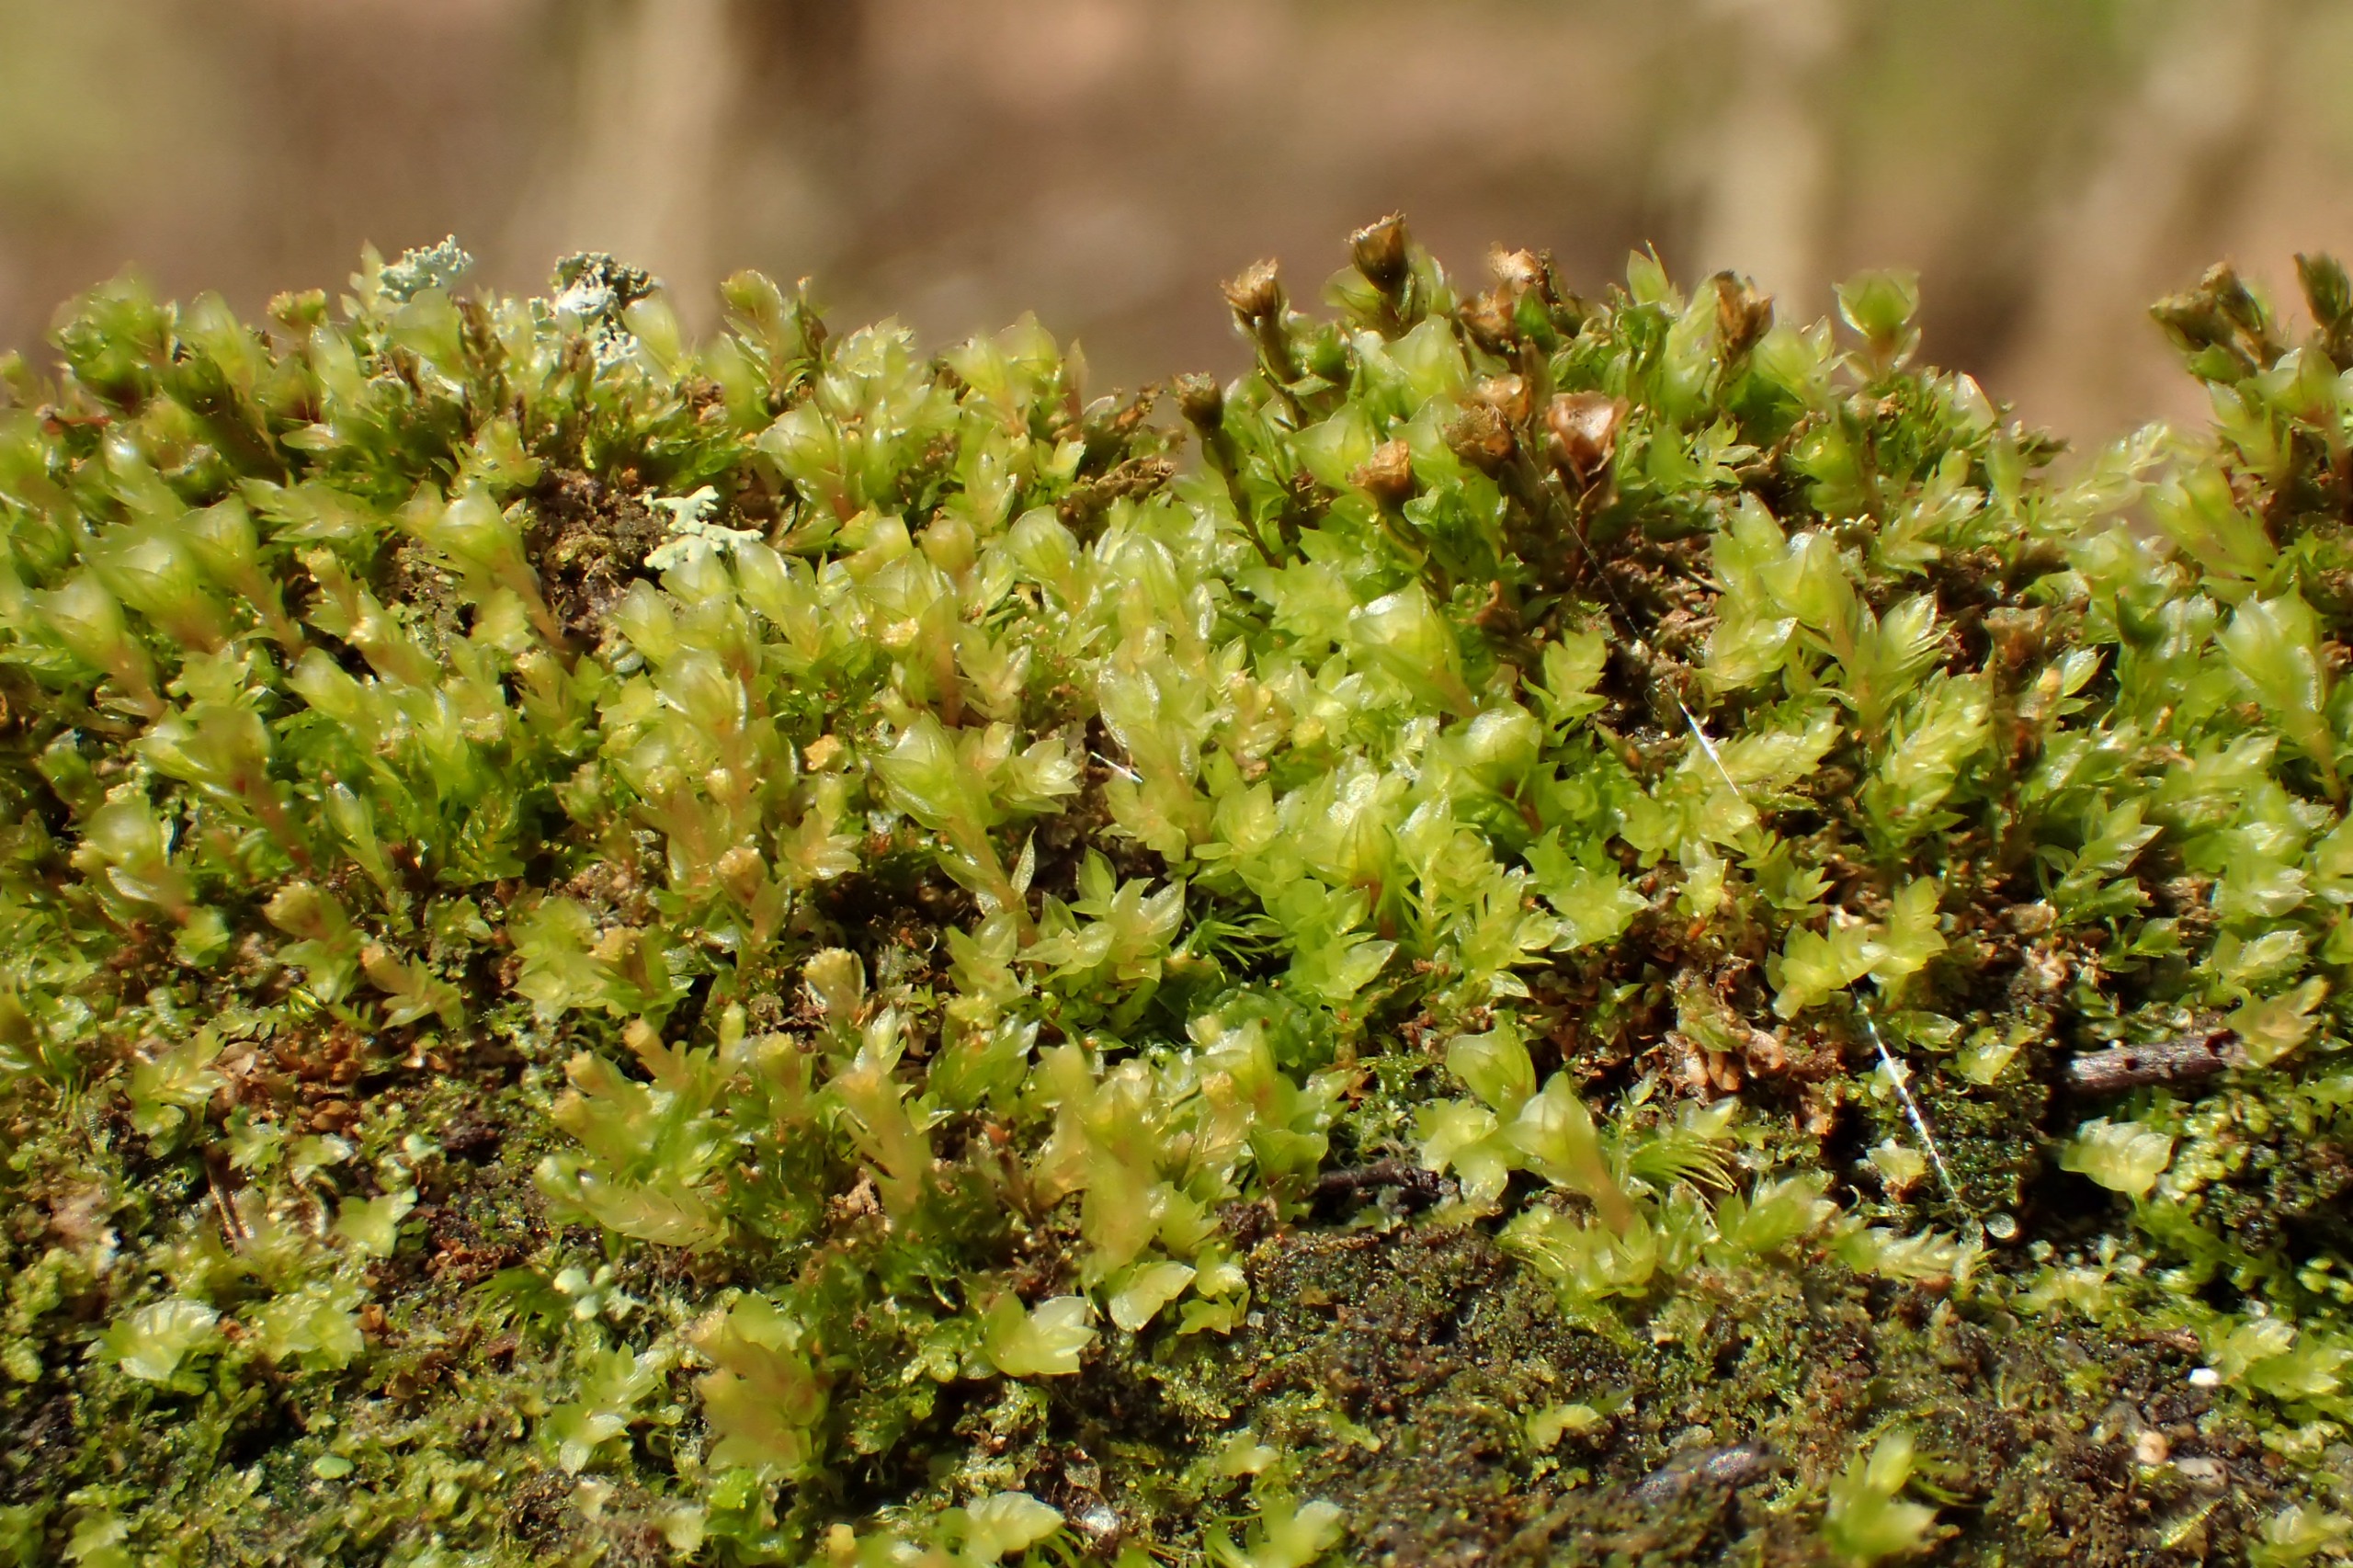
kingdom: Plantae
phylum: Bryophyta
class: Polytrichopsida
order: Tetraphidales
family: Tetraphidaceae
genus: Tetraphis
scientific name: Tetraphis pellucida
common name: Almindelig firtand
